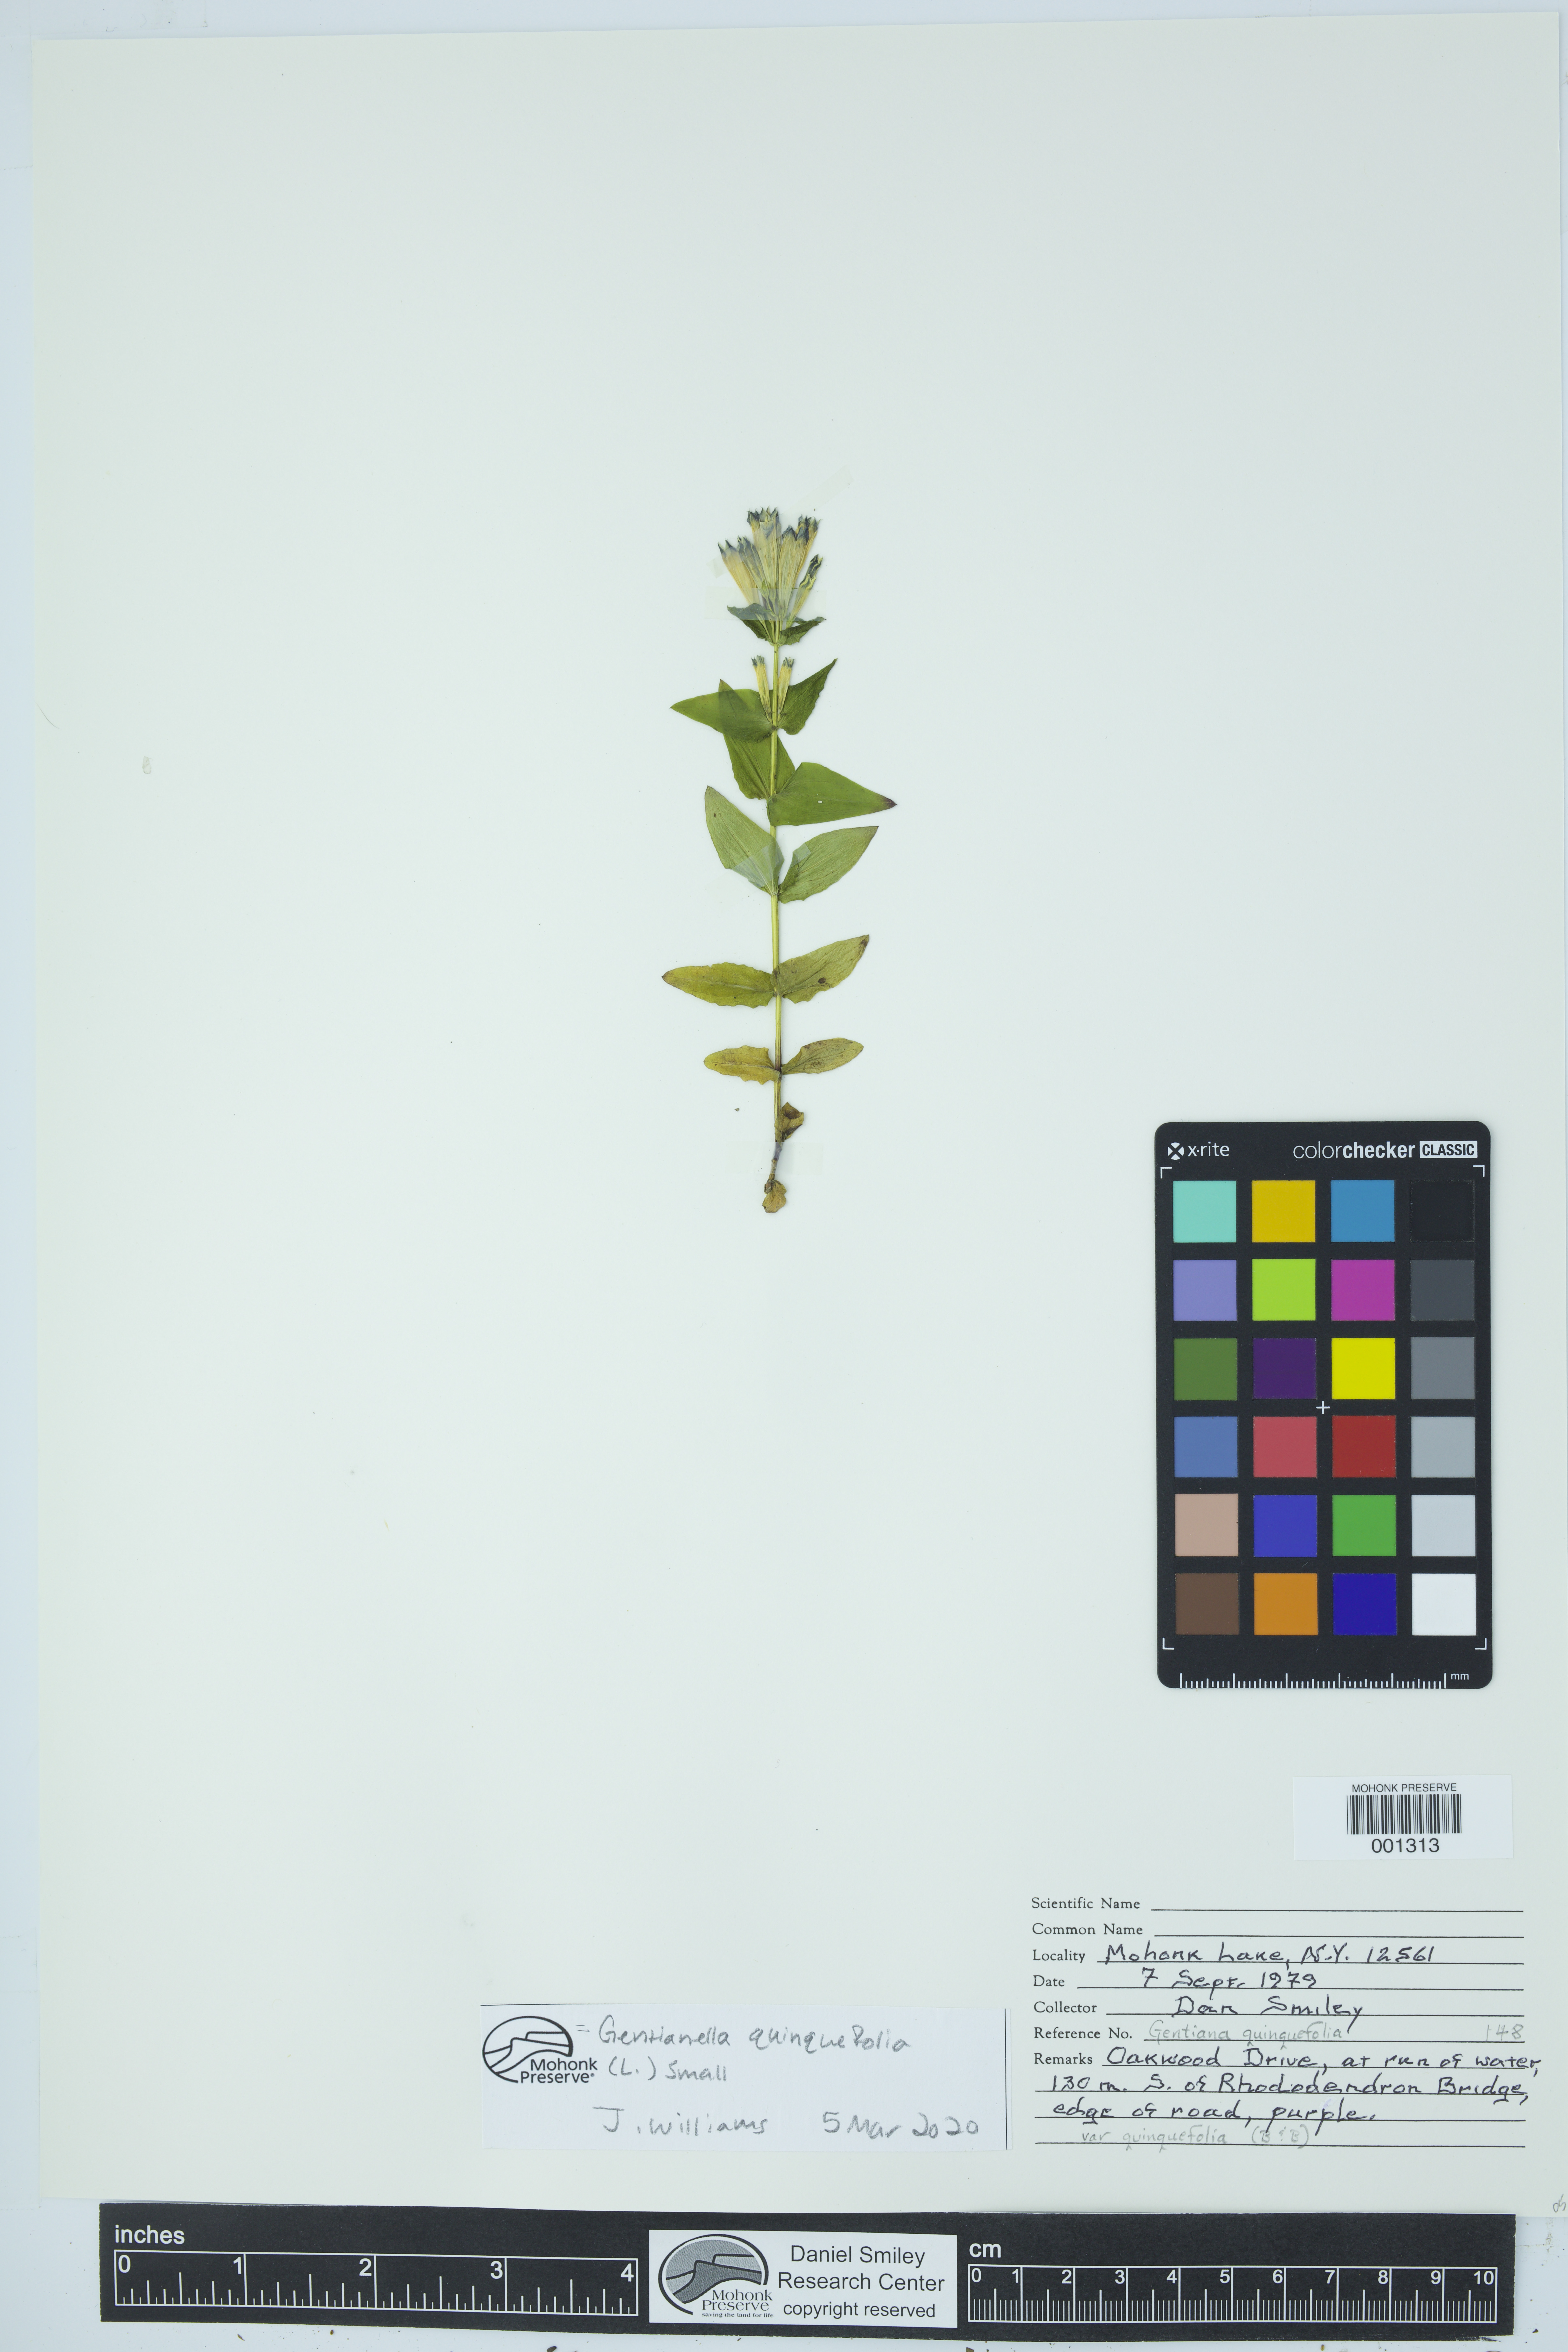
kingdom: Plantae
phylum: Tracheophyta
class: Magnoliopsida
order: Gentianales
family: Gentianaceae
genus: Gentianella
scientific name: Gentianella quinquefolia
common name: Agueweed
